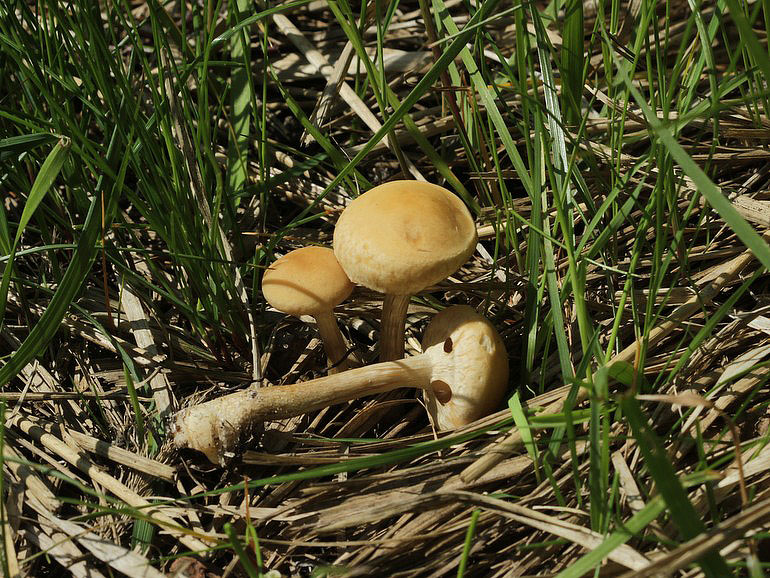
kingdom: Fungi
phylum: Basidiomycota
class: Agaricomycetes
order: Agaricales
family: Strophariaceae
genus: Agrocybe
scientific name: Agrocybe praecox
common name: tidlig agerhat
